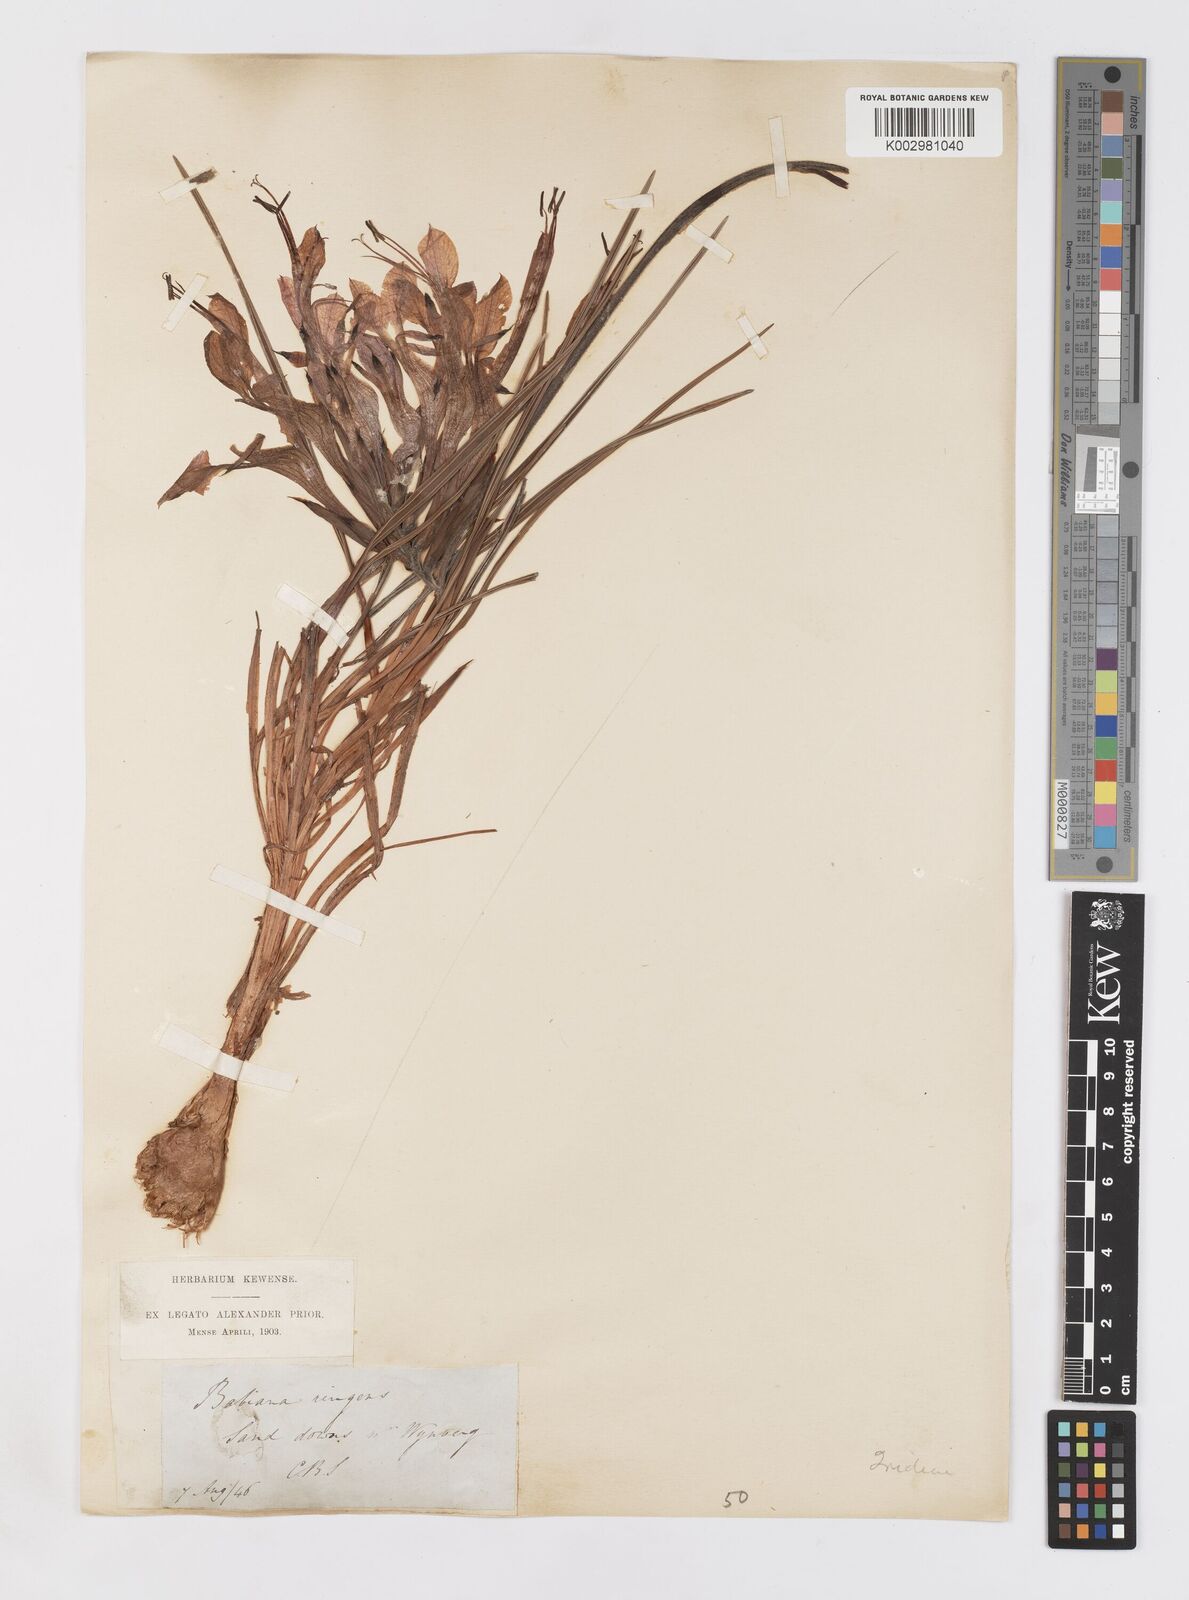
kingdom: Plantae
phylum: Tracheophyta
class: Liliopsida
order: Asparagales
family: Iridaceae
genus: Babiana
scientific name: Babiana ringens
